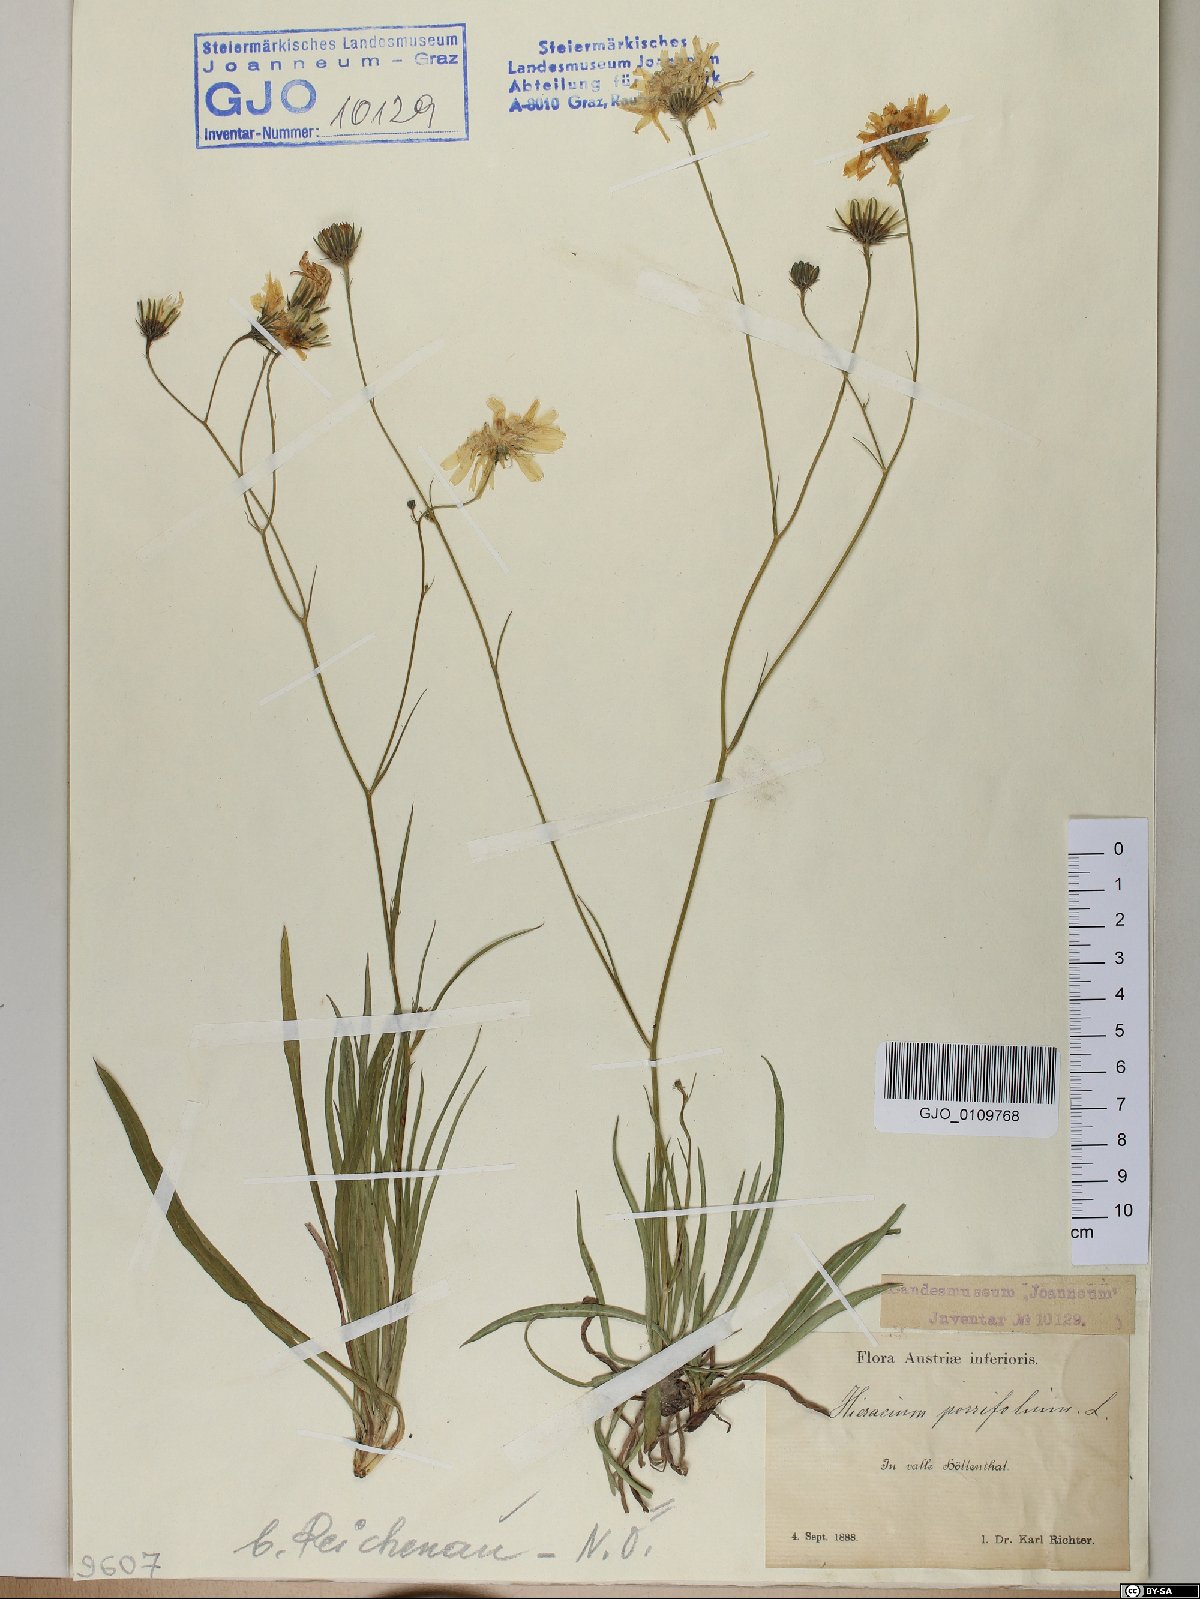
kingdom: Plantae
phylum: Tracheophyta
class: Magnoliopsida
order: Asterales
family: Asteraceae
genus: Hieracium
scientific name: Hieracium porrifolium
